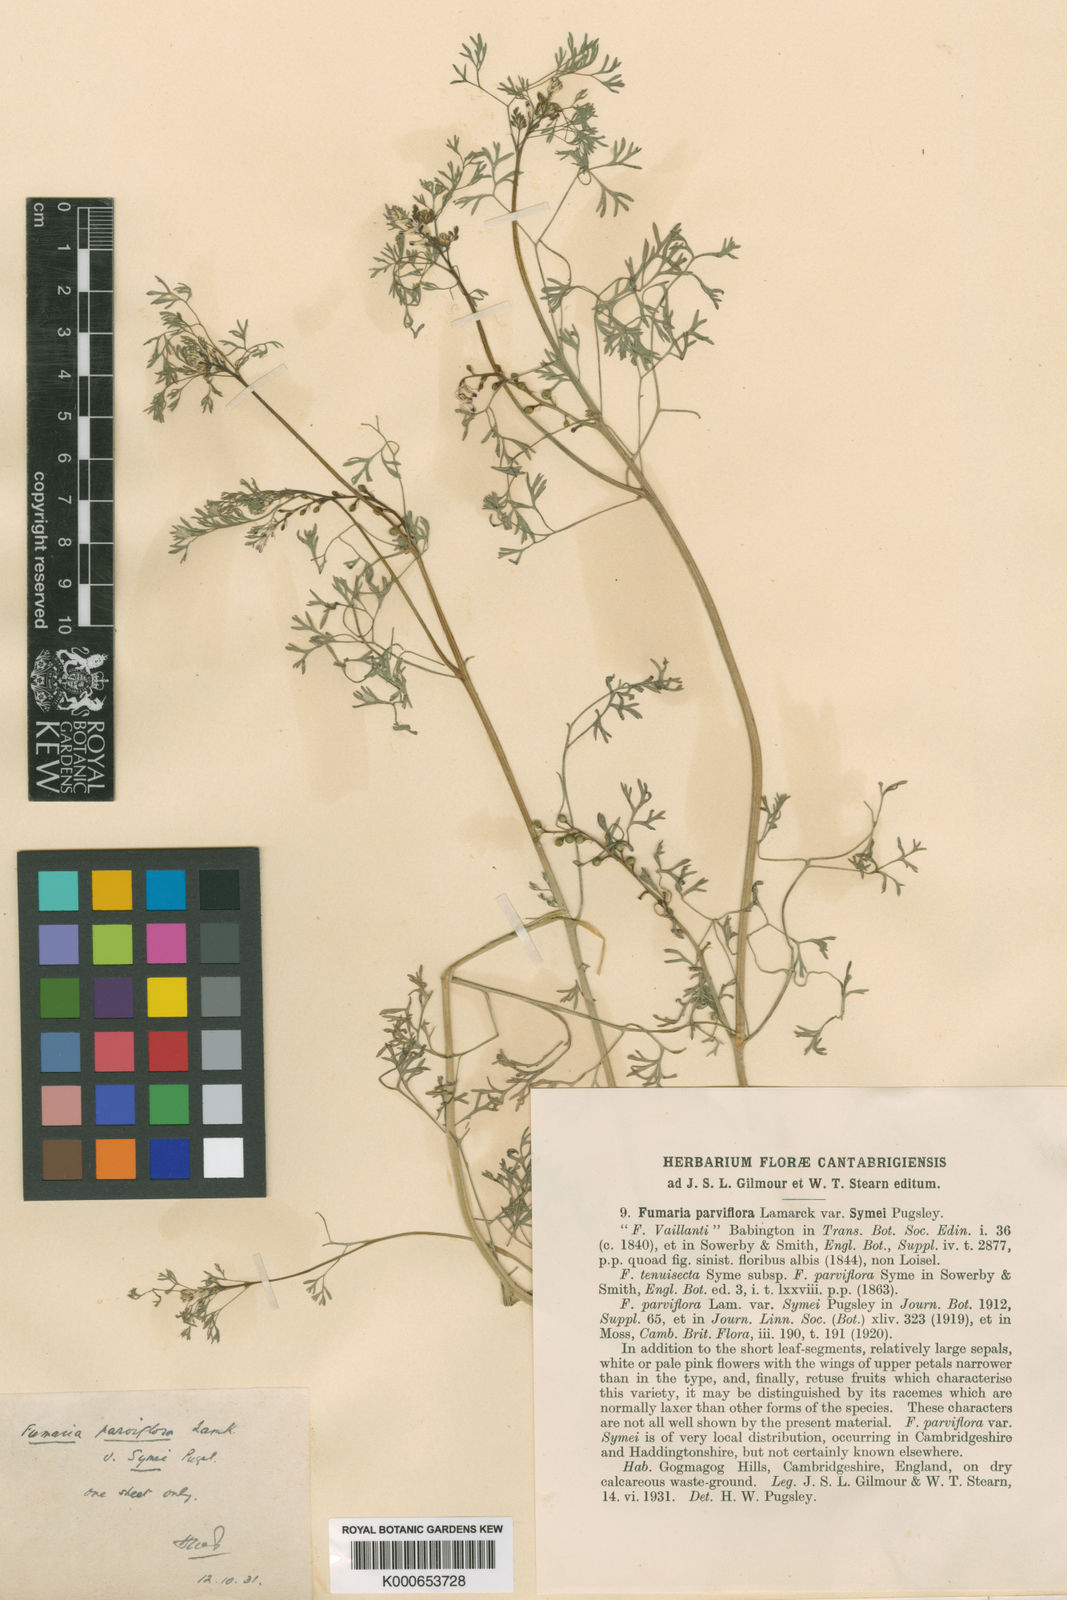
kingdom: Plantae
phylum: Tracheophyta
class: Magnoliopsida
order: Ranunculales
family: Papaveraceae
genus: Fumaria
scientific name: Fumaria parviflora
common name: Fine-leaved fumitory
